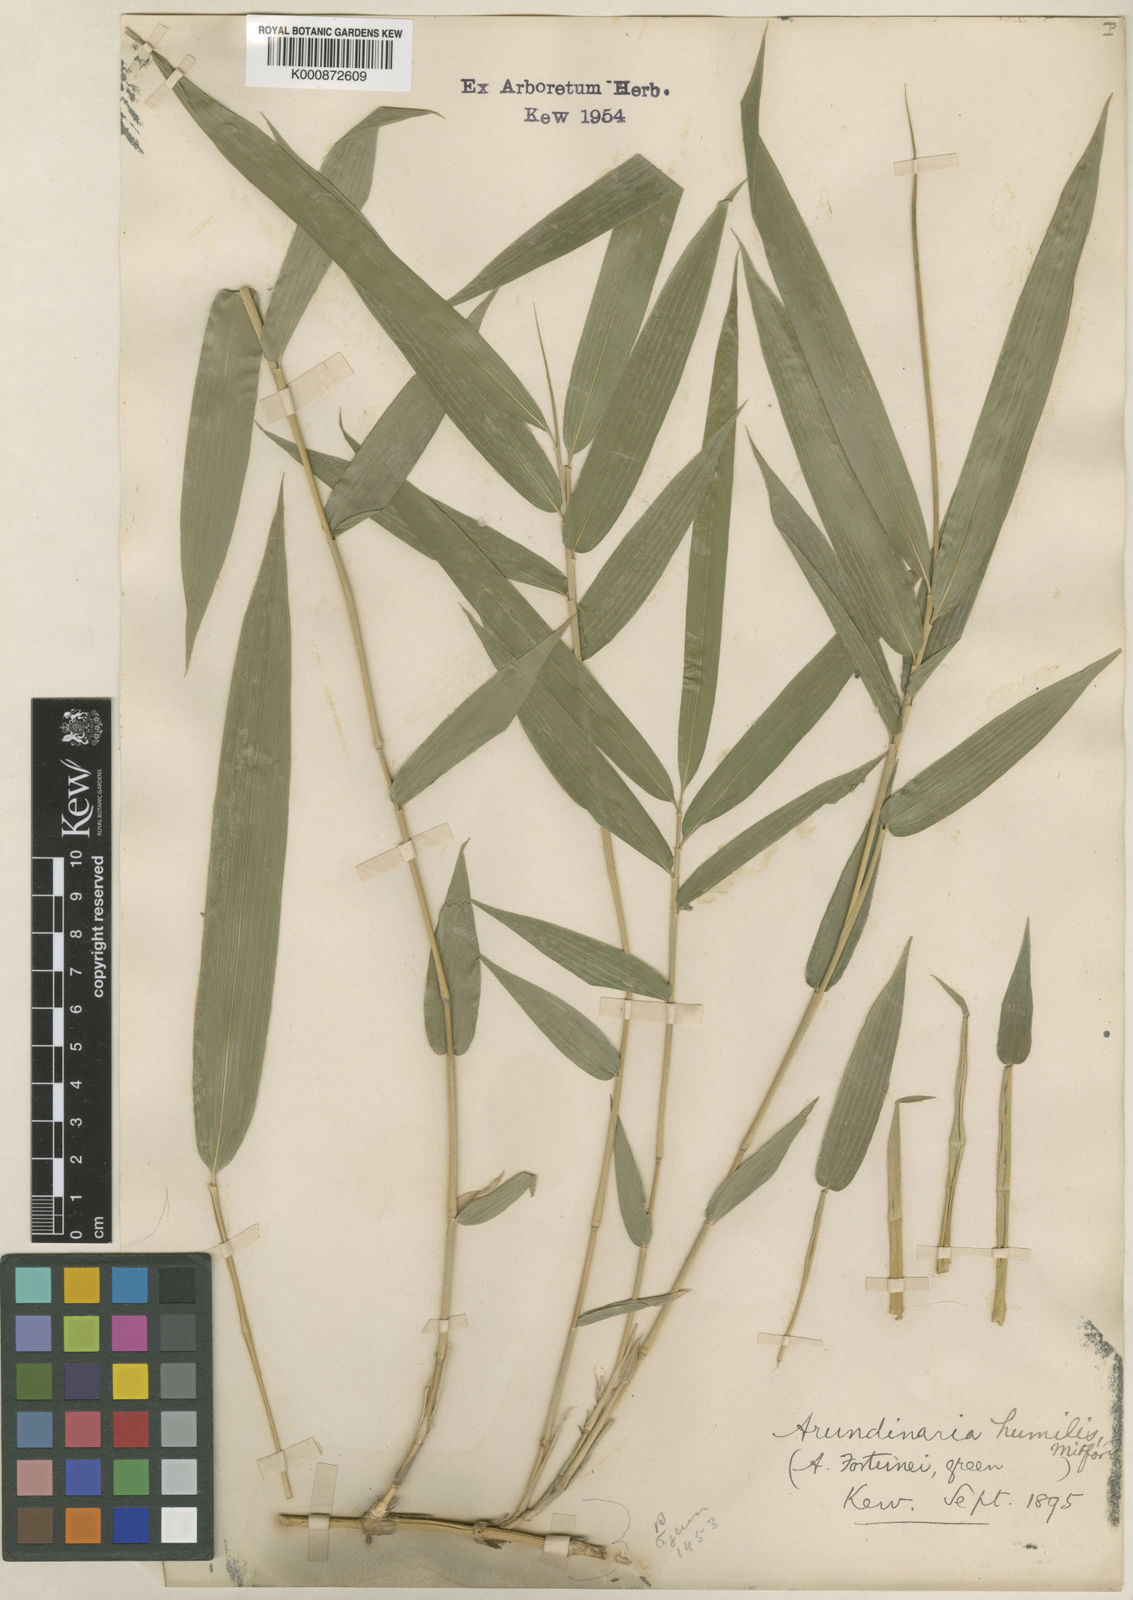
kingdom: Plantae
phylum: Tracheophyta
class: Liliopsida
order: Poales
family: Poaceae
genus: Pseudosasa
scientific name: Pseudosasa humilis
